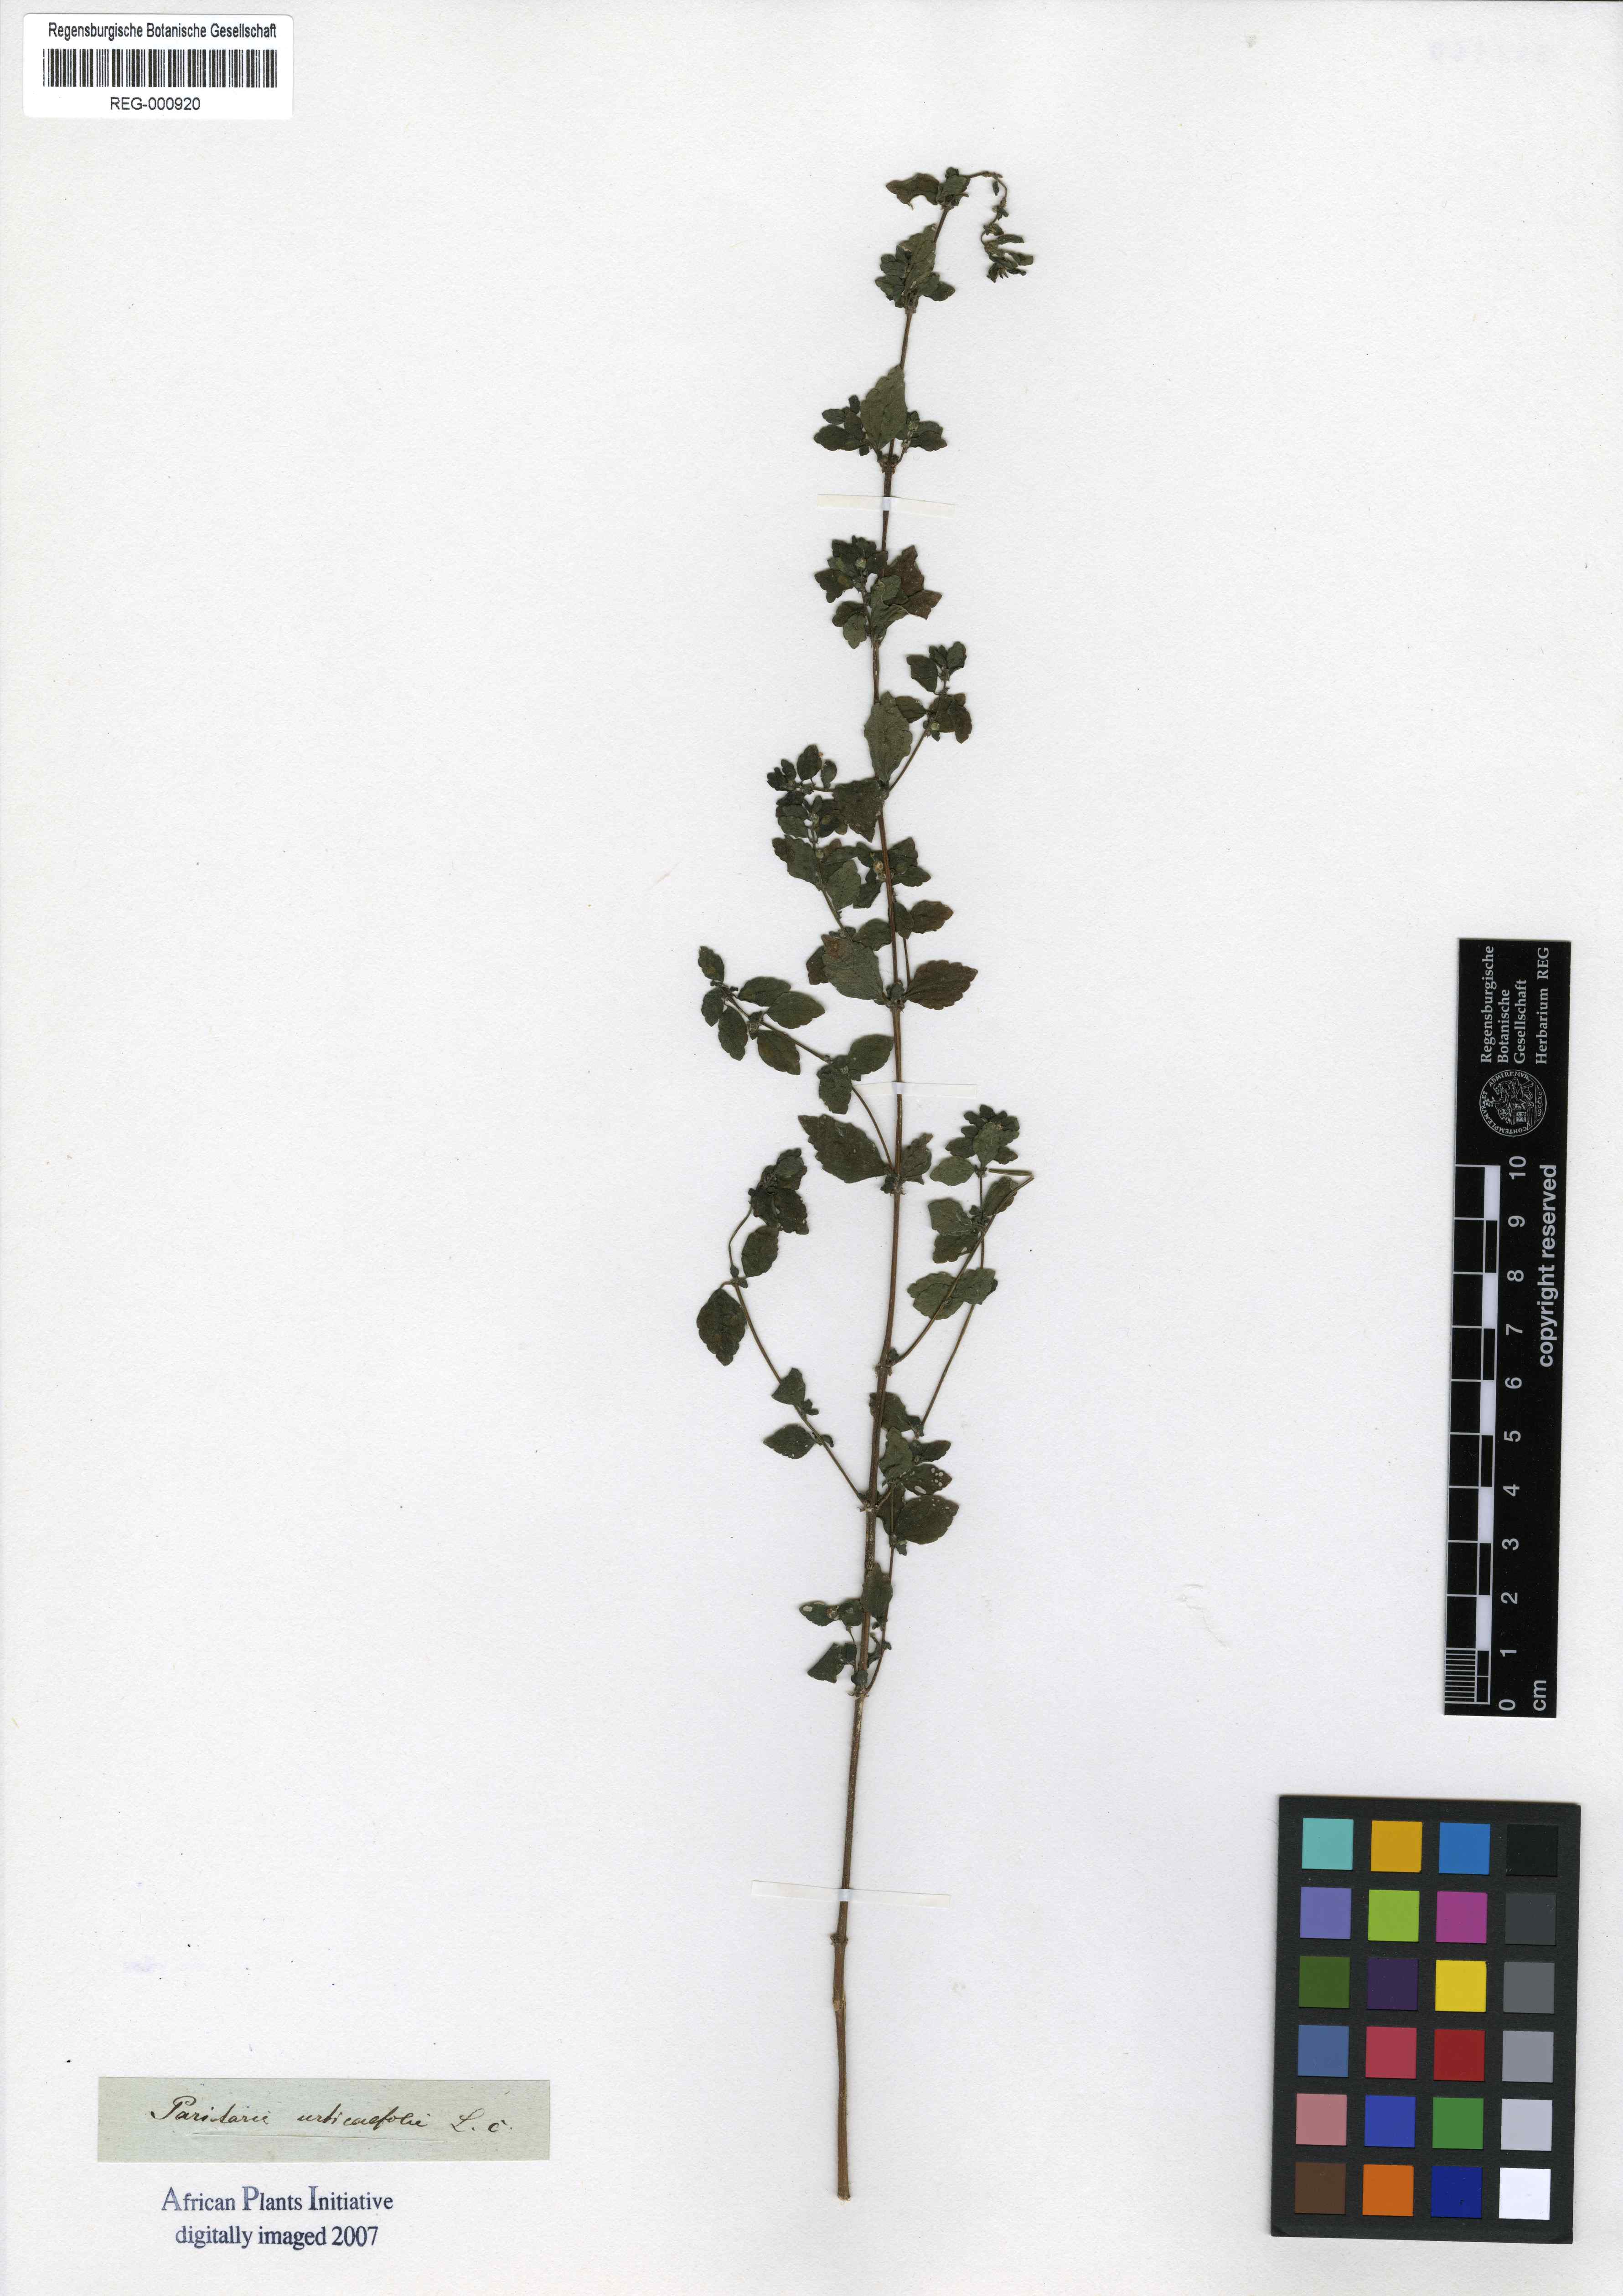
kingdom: Plantae
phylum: Tracheophyta
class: Magnoliopsida
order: Rosales
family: Urticaceae
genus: Pilea
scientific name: Pilea urticifolia
